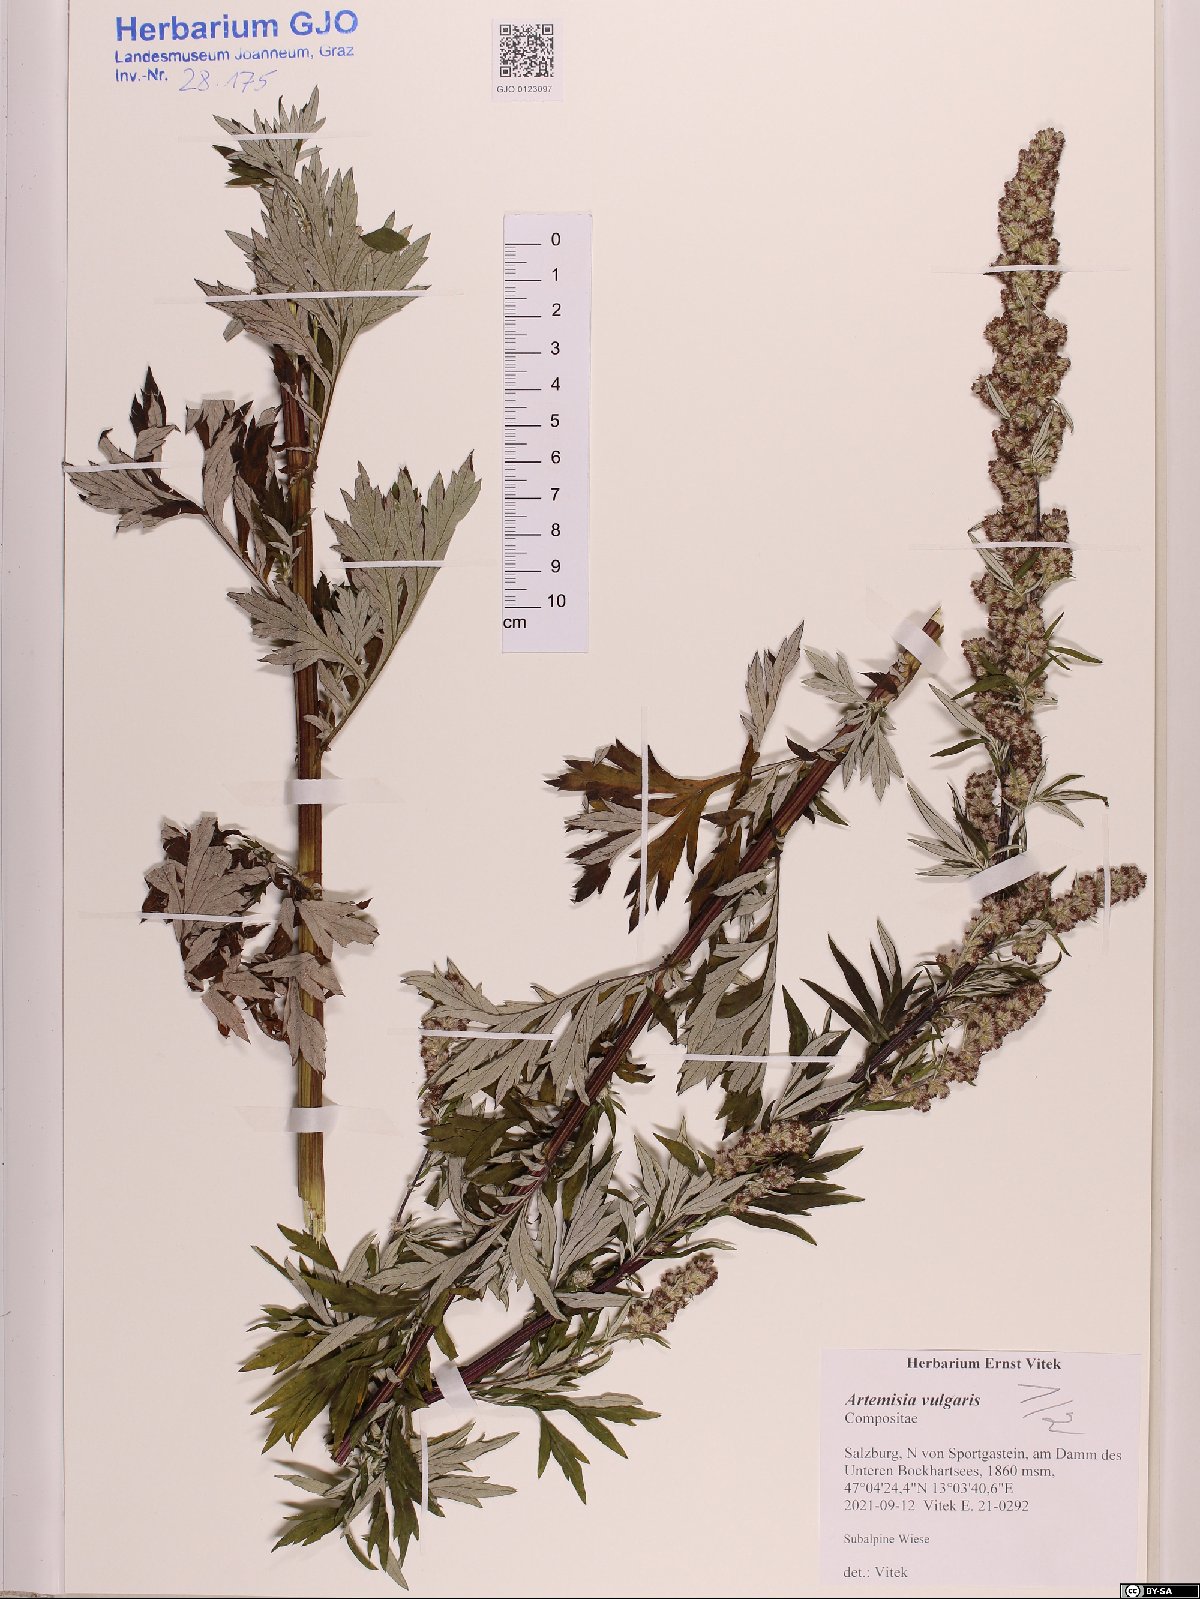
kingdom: Plantae
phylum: Tracheophyta
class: Magnoliopsida
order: Asterales
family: Asteraceae
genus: Artemisia
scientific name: Artemisia vulgaris
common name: Mugwort
